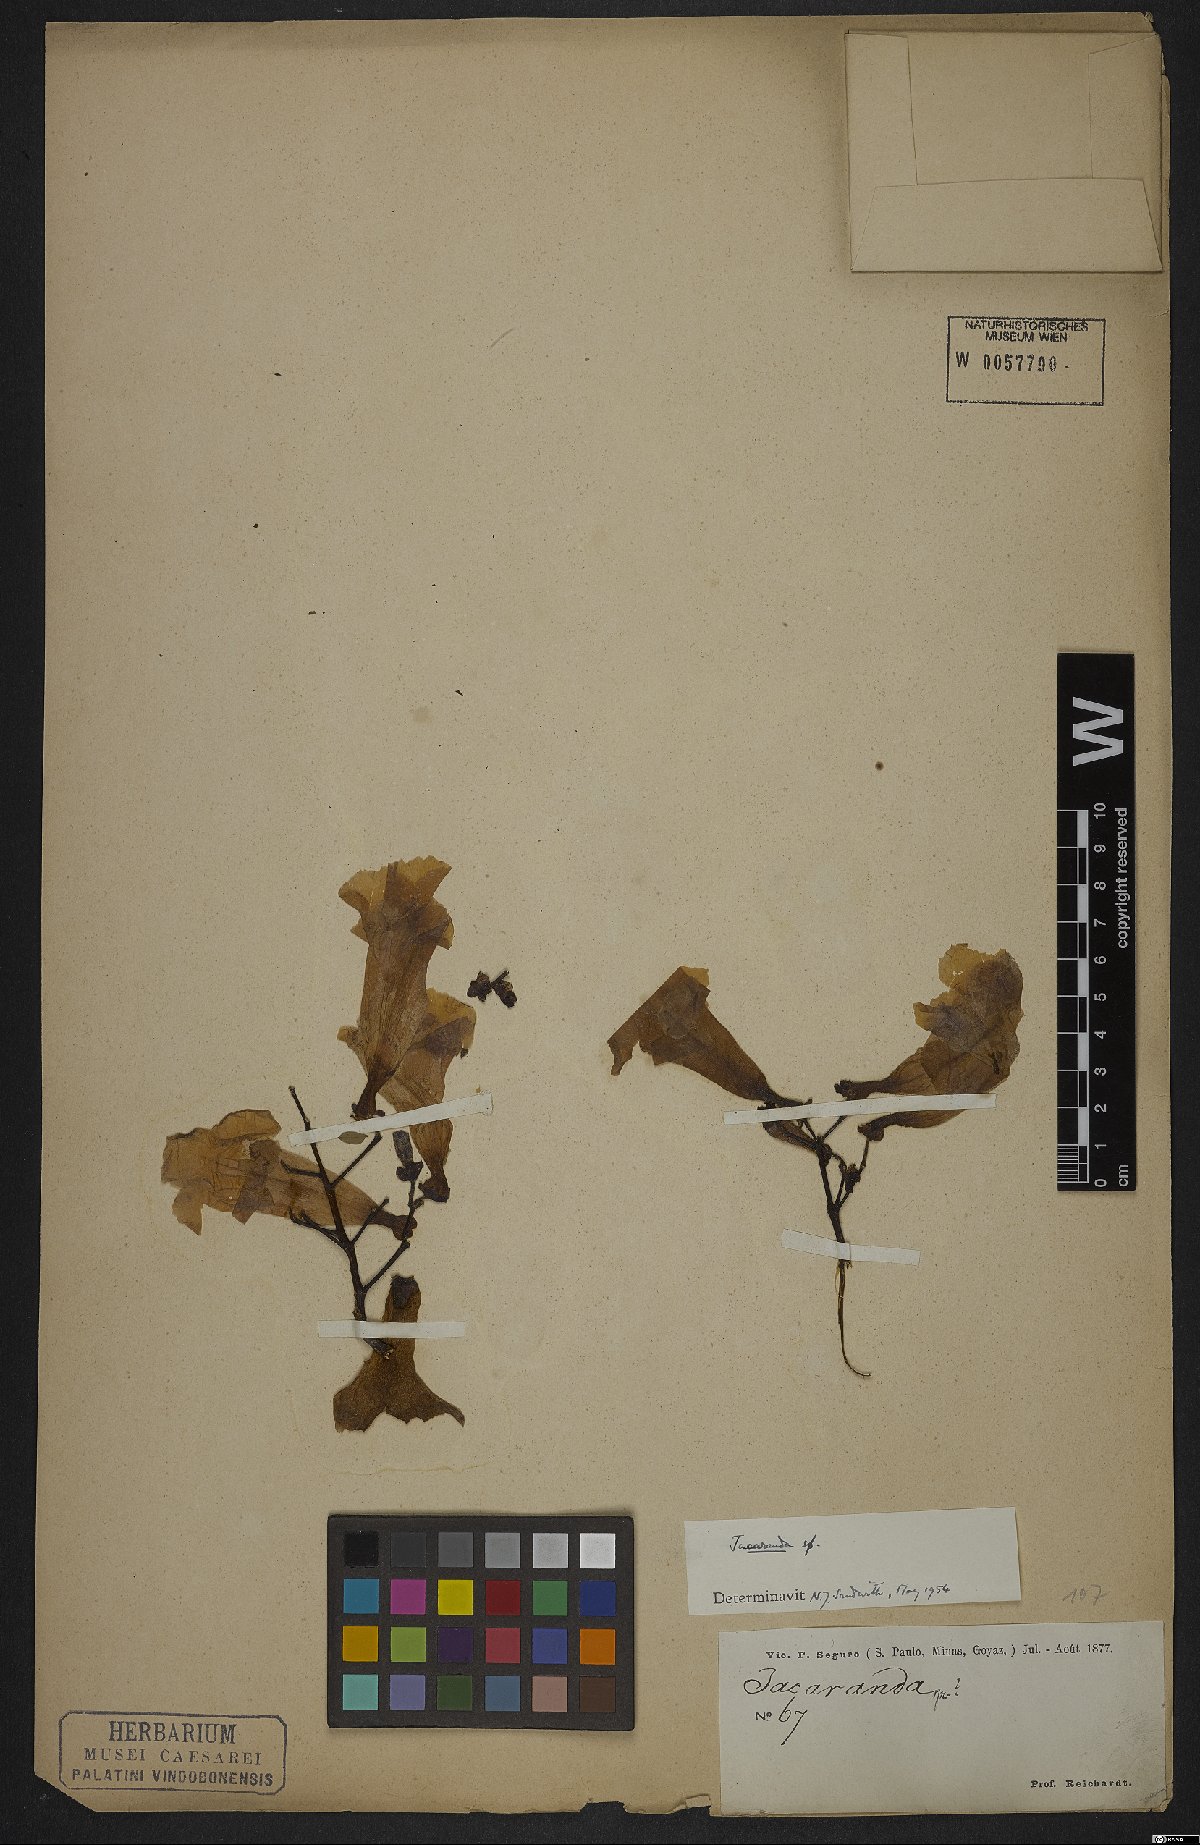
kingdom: Plantae
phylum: Tracheophyta
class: Magnoliopsida
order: Lamiales
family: Bignoniaceae
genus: Jacaranda
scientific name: Jacaranda
